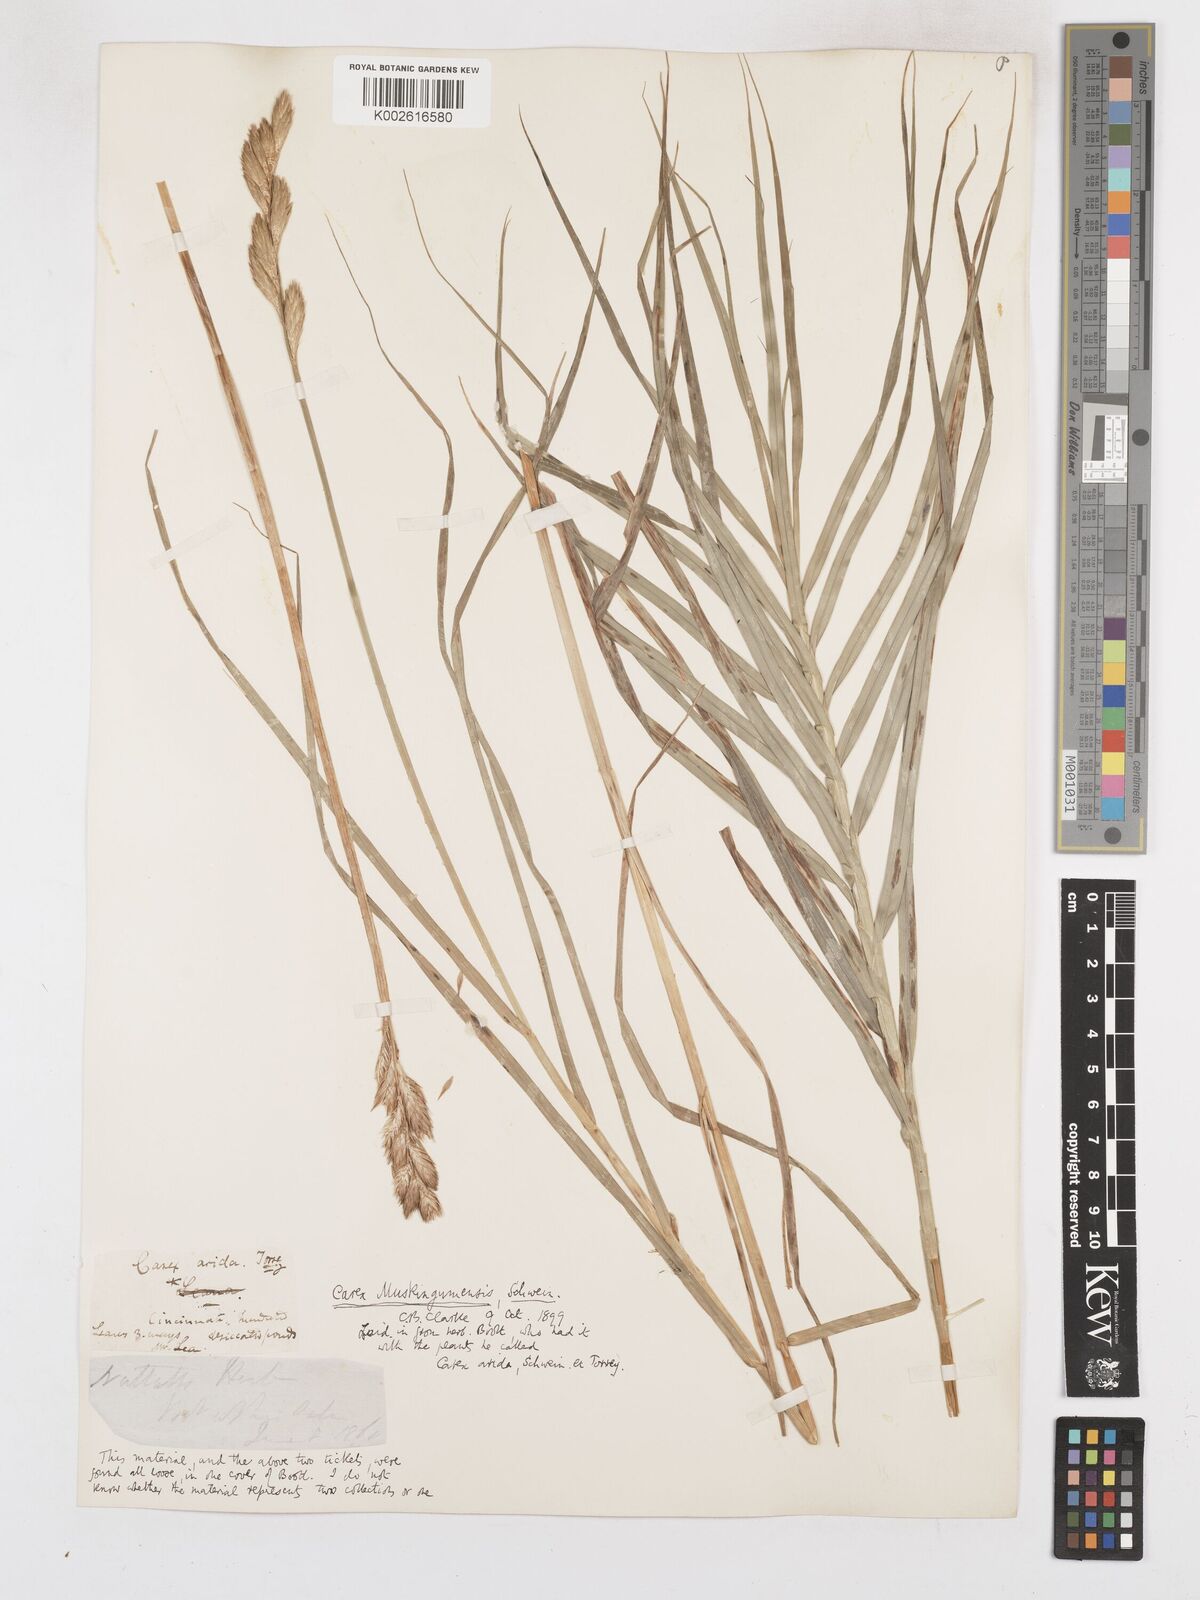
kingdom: Plantae
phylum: Tracheophyta
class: Liliopsida
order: Poales
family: Cyperaceae
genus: Carex
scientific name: Carex muskingumensis
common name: Muskingum sedge
